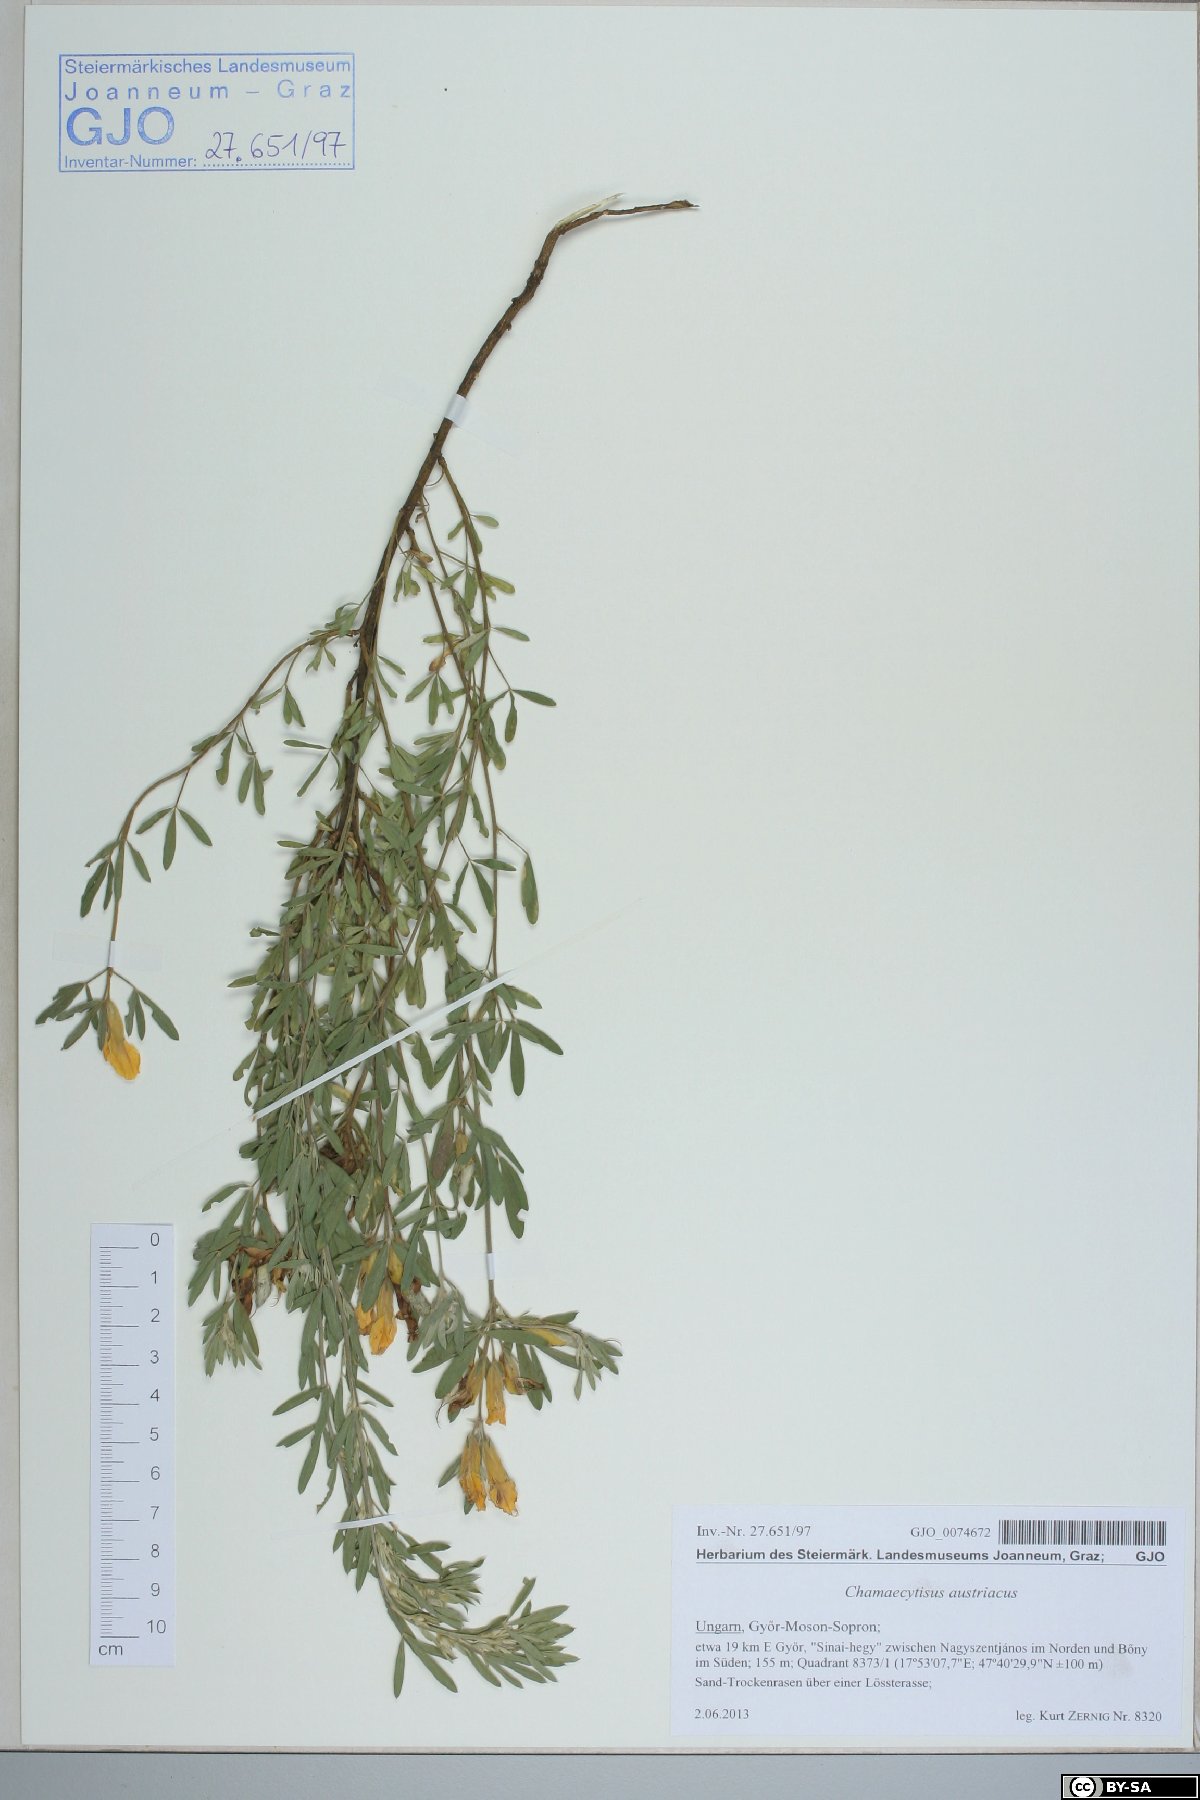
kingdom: Plantae
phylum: Tracheophyta
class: Magnoliopsida
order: Fabales
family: Fabaceae
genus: Chamaecytisus
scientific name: Chamaecytisus austriacus
